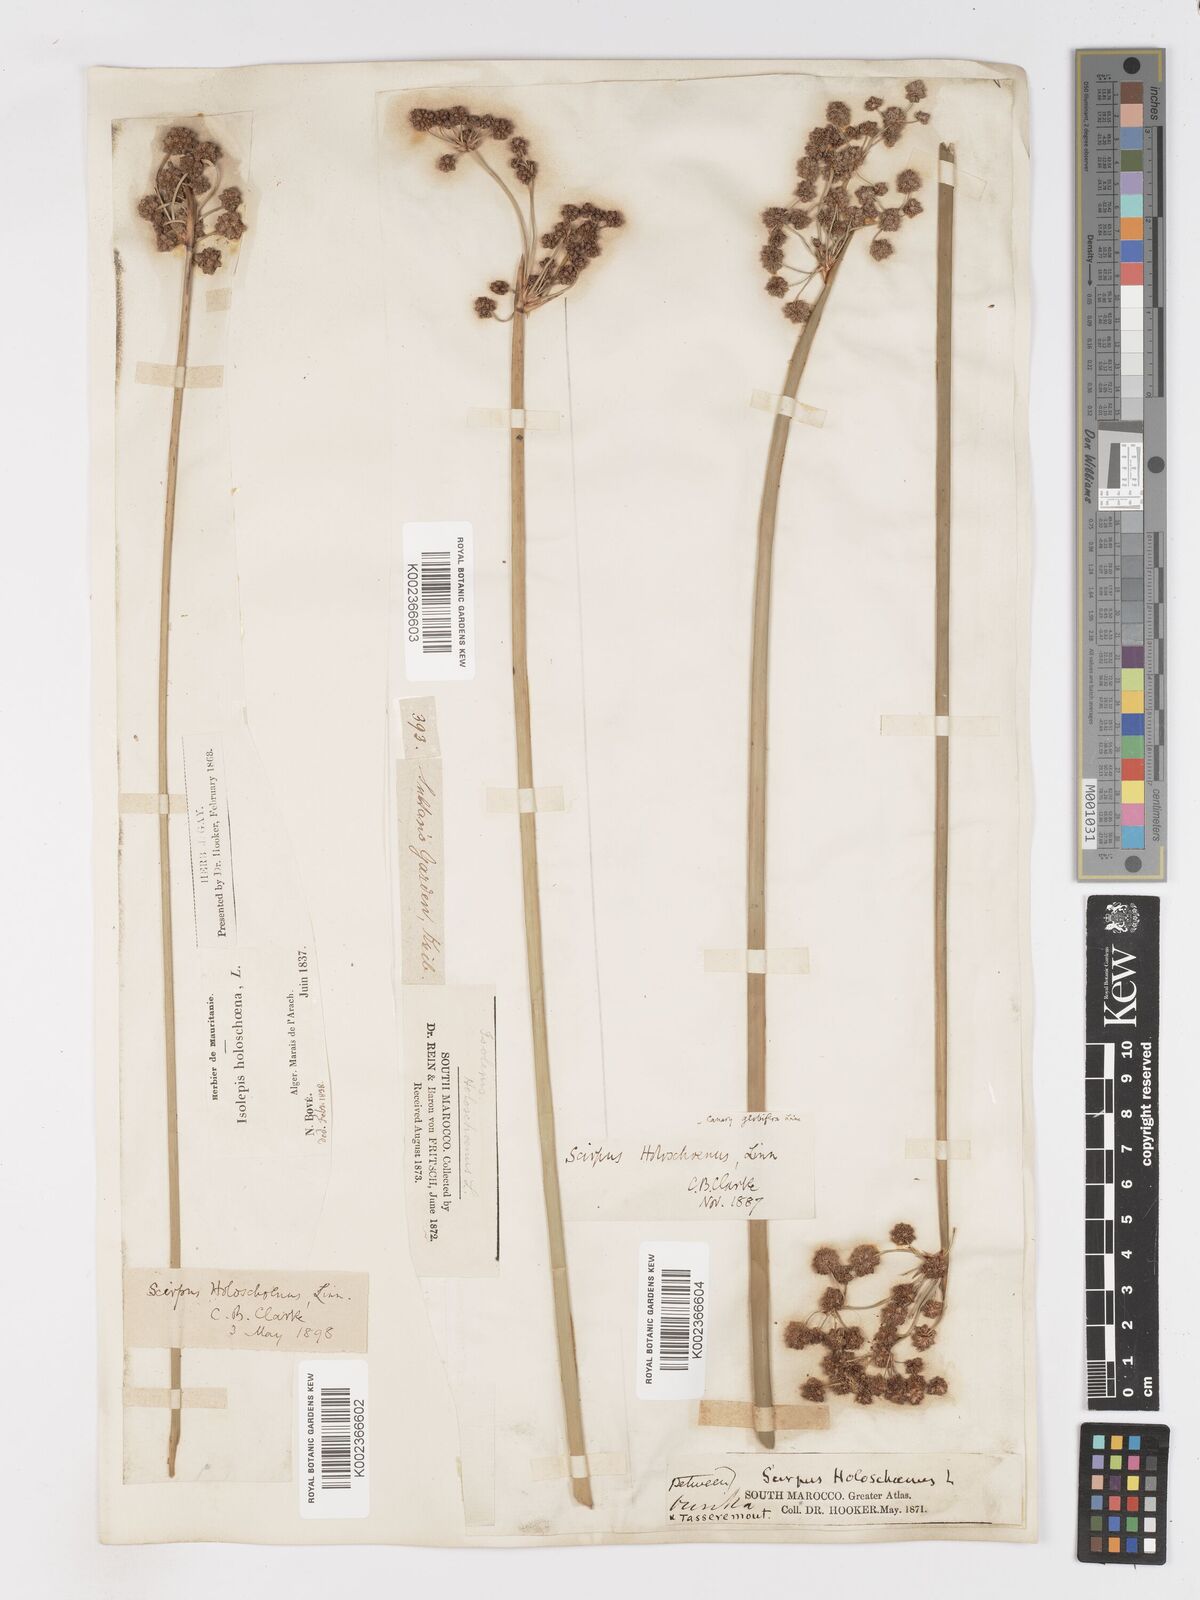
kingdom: Plantae
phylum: Tracheophyta
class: Liliopsida
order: Poales
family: Cyperaceae
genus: Scirpoides
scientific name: Scirpoides holoschoenus
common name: Round-headed club-rush
